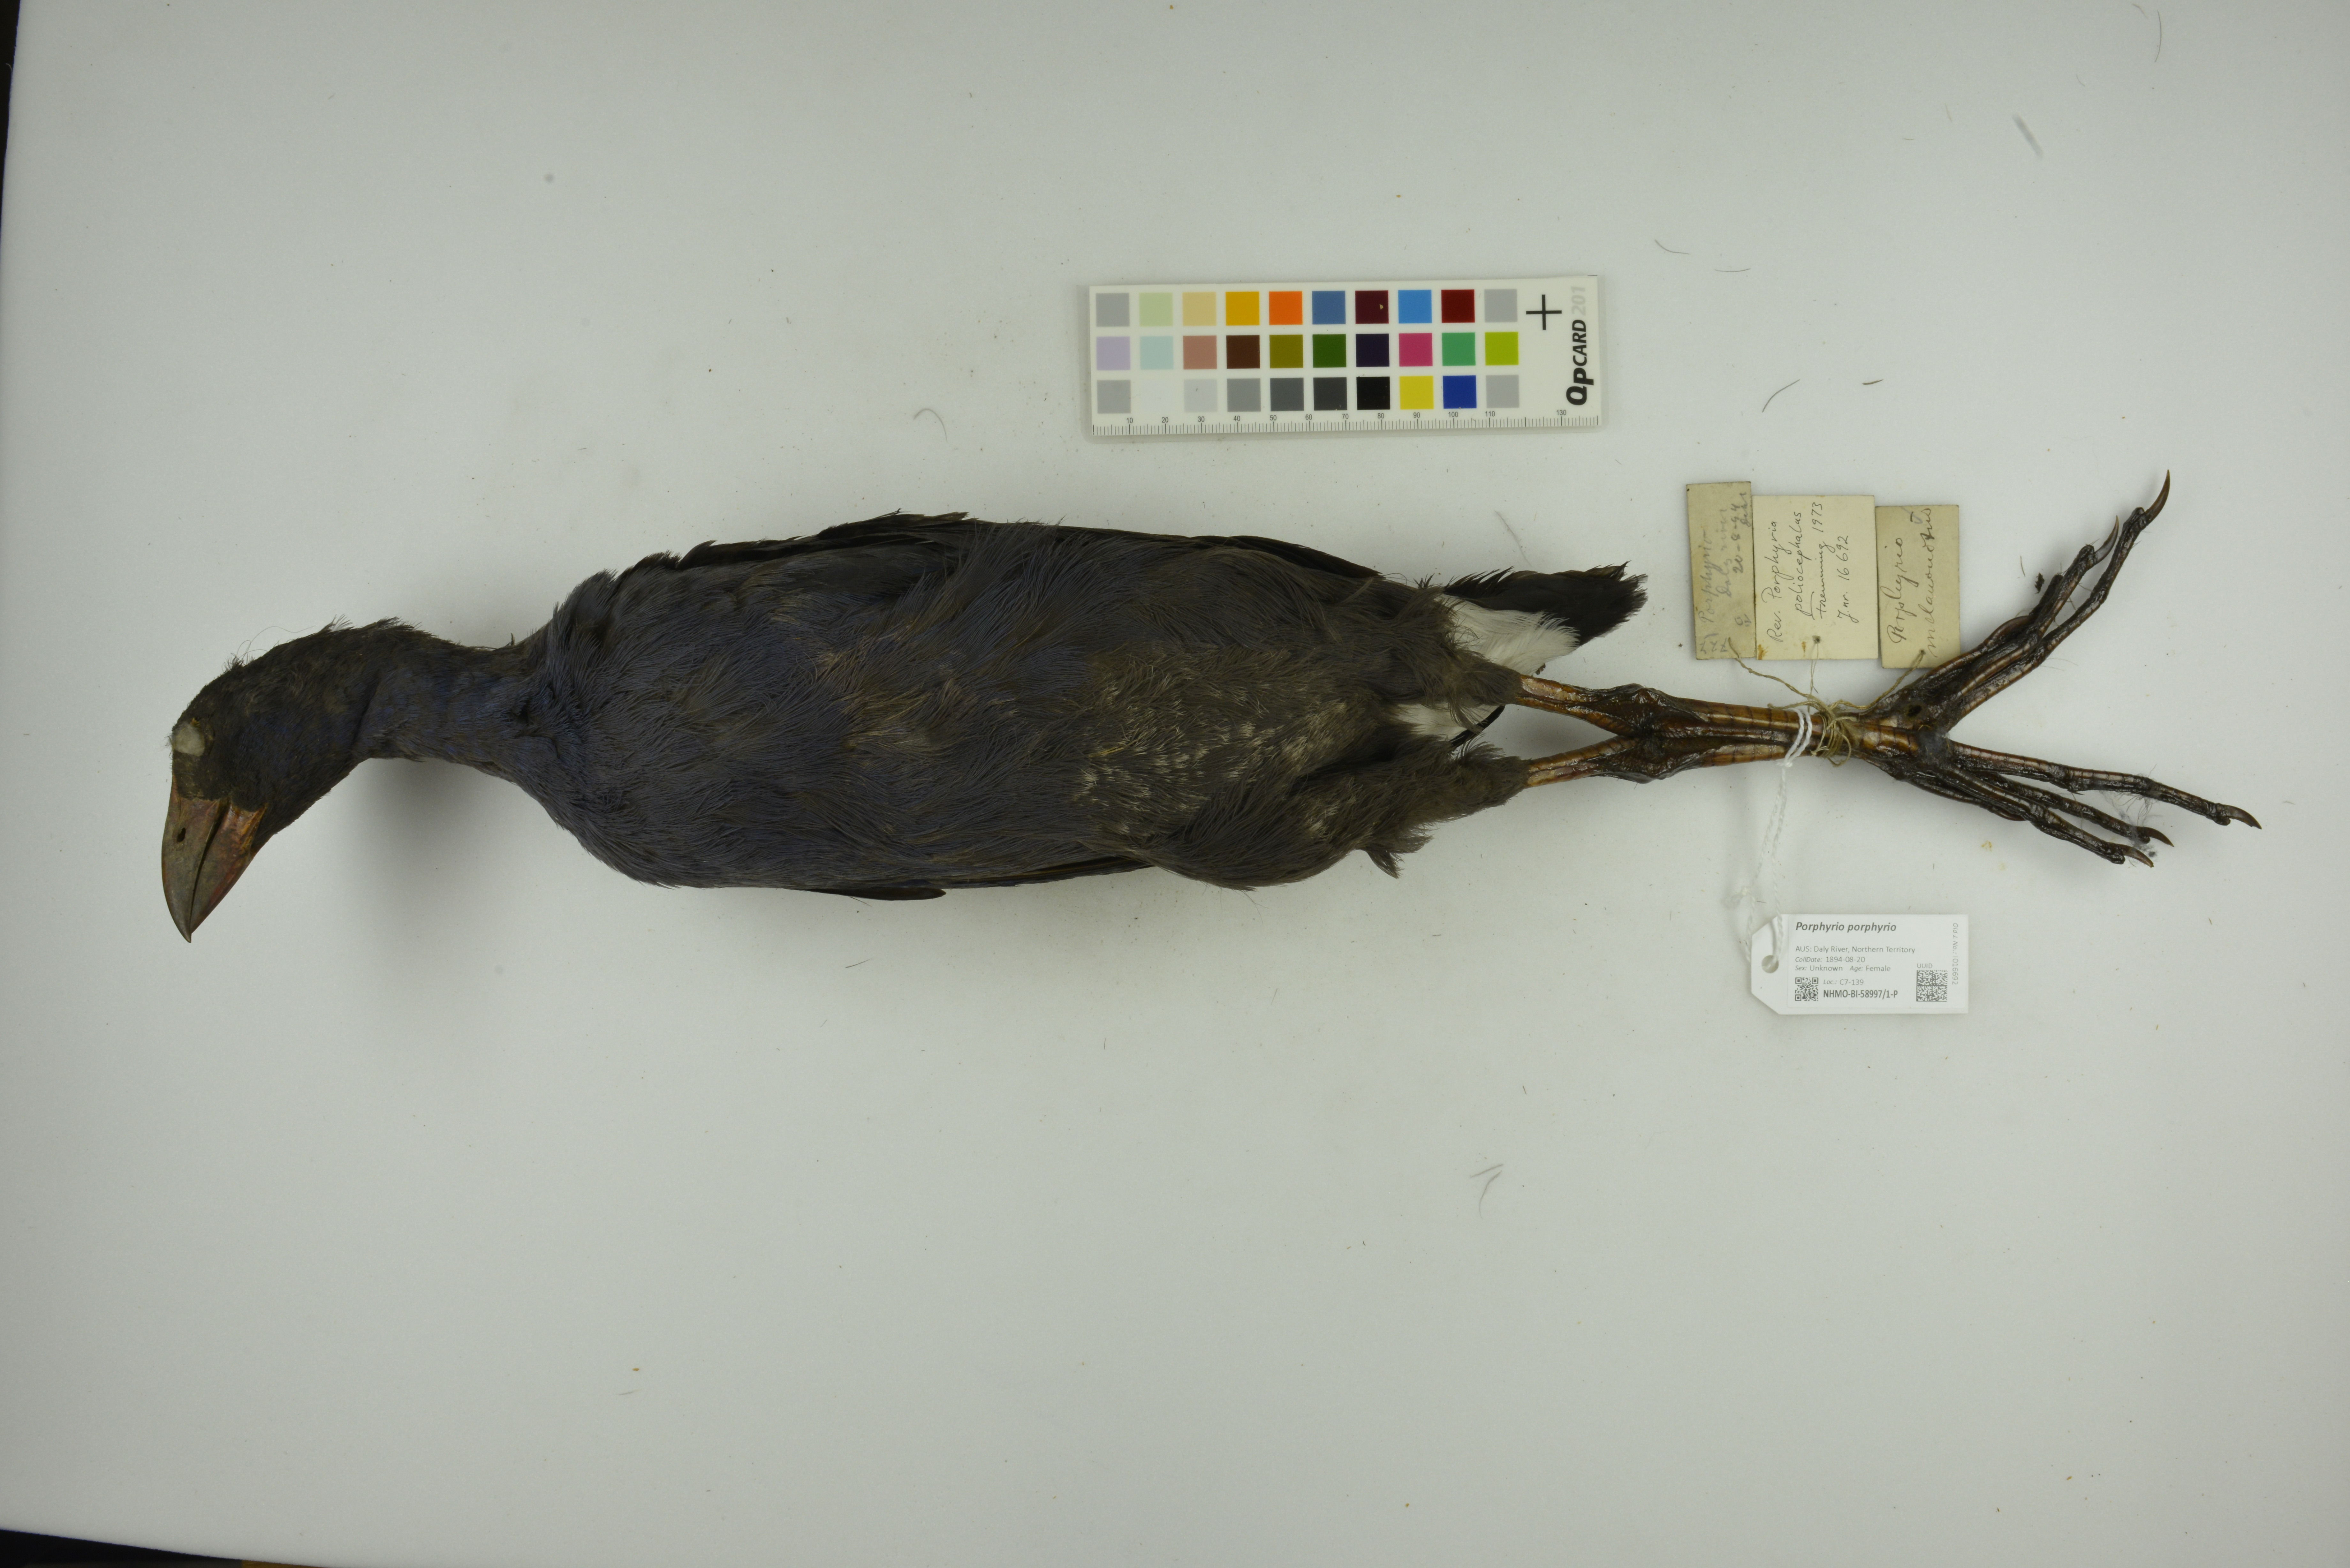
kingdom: Animalia
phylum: Chordata
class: Aves
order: Gruiformes
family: Rallidae
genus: Porphyrio
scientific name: Porphyrio porphyrio
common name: Purple swamphen
